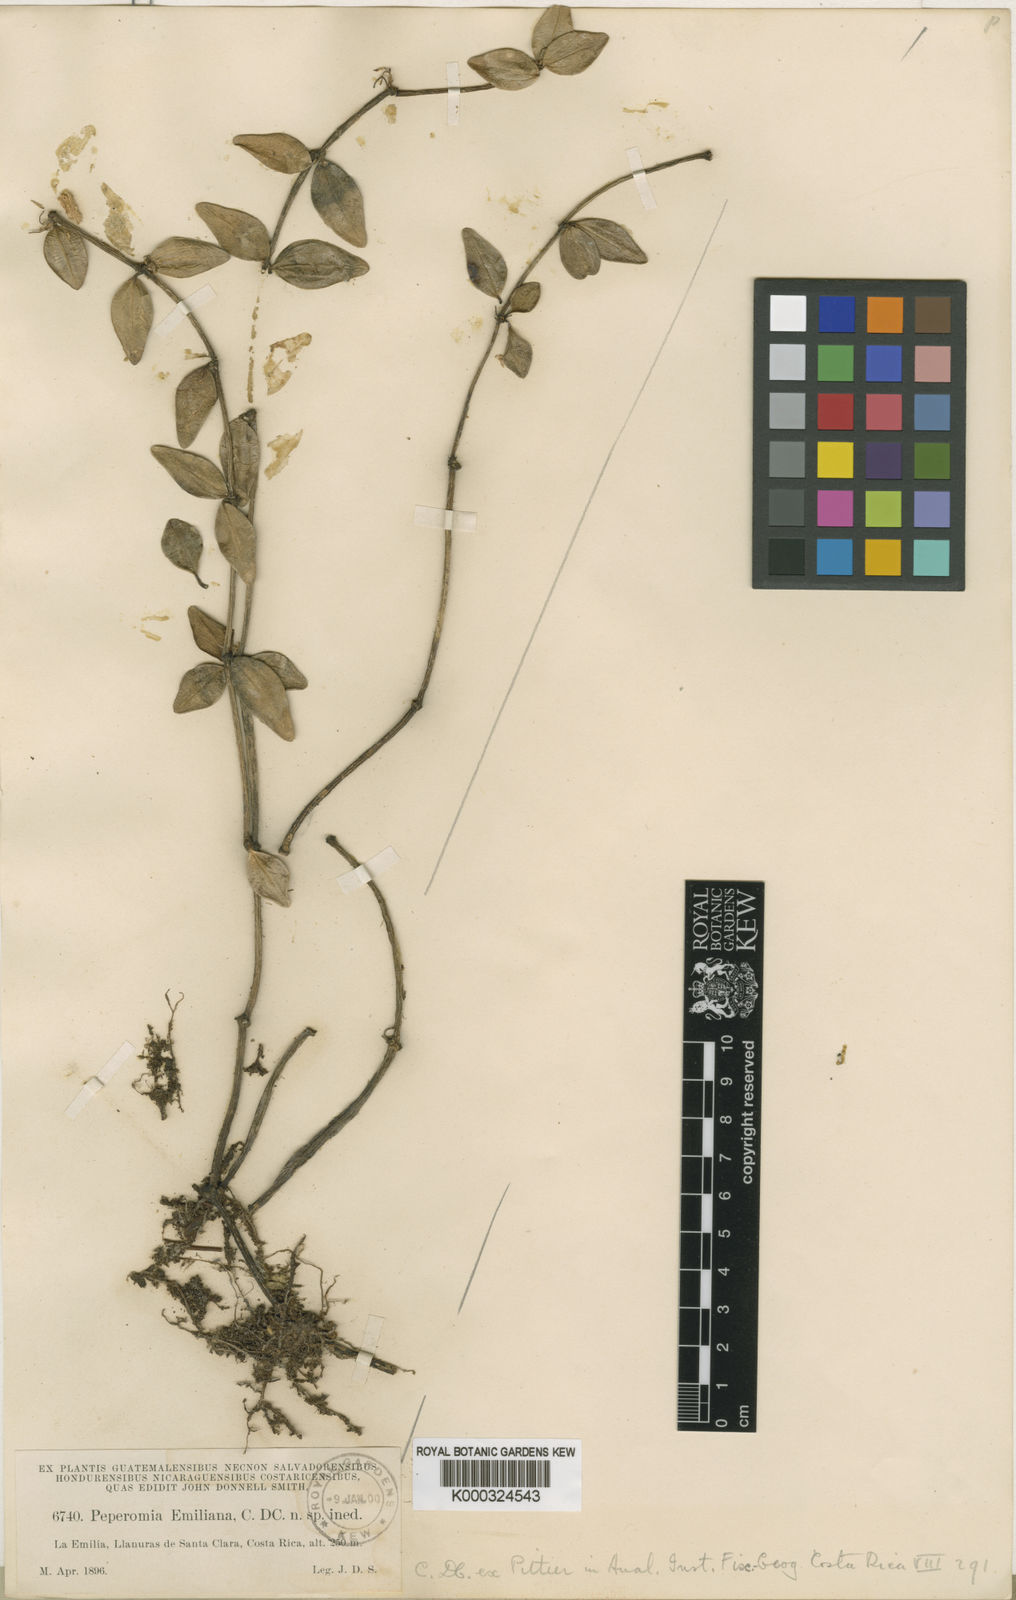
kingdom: Plantae
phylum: Tracheophyta
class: Magnoliopsida
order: Piperales
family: Piperaceae
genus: Peperomia
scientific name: Peperomia emiliana
